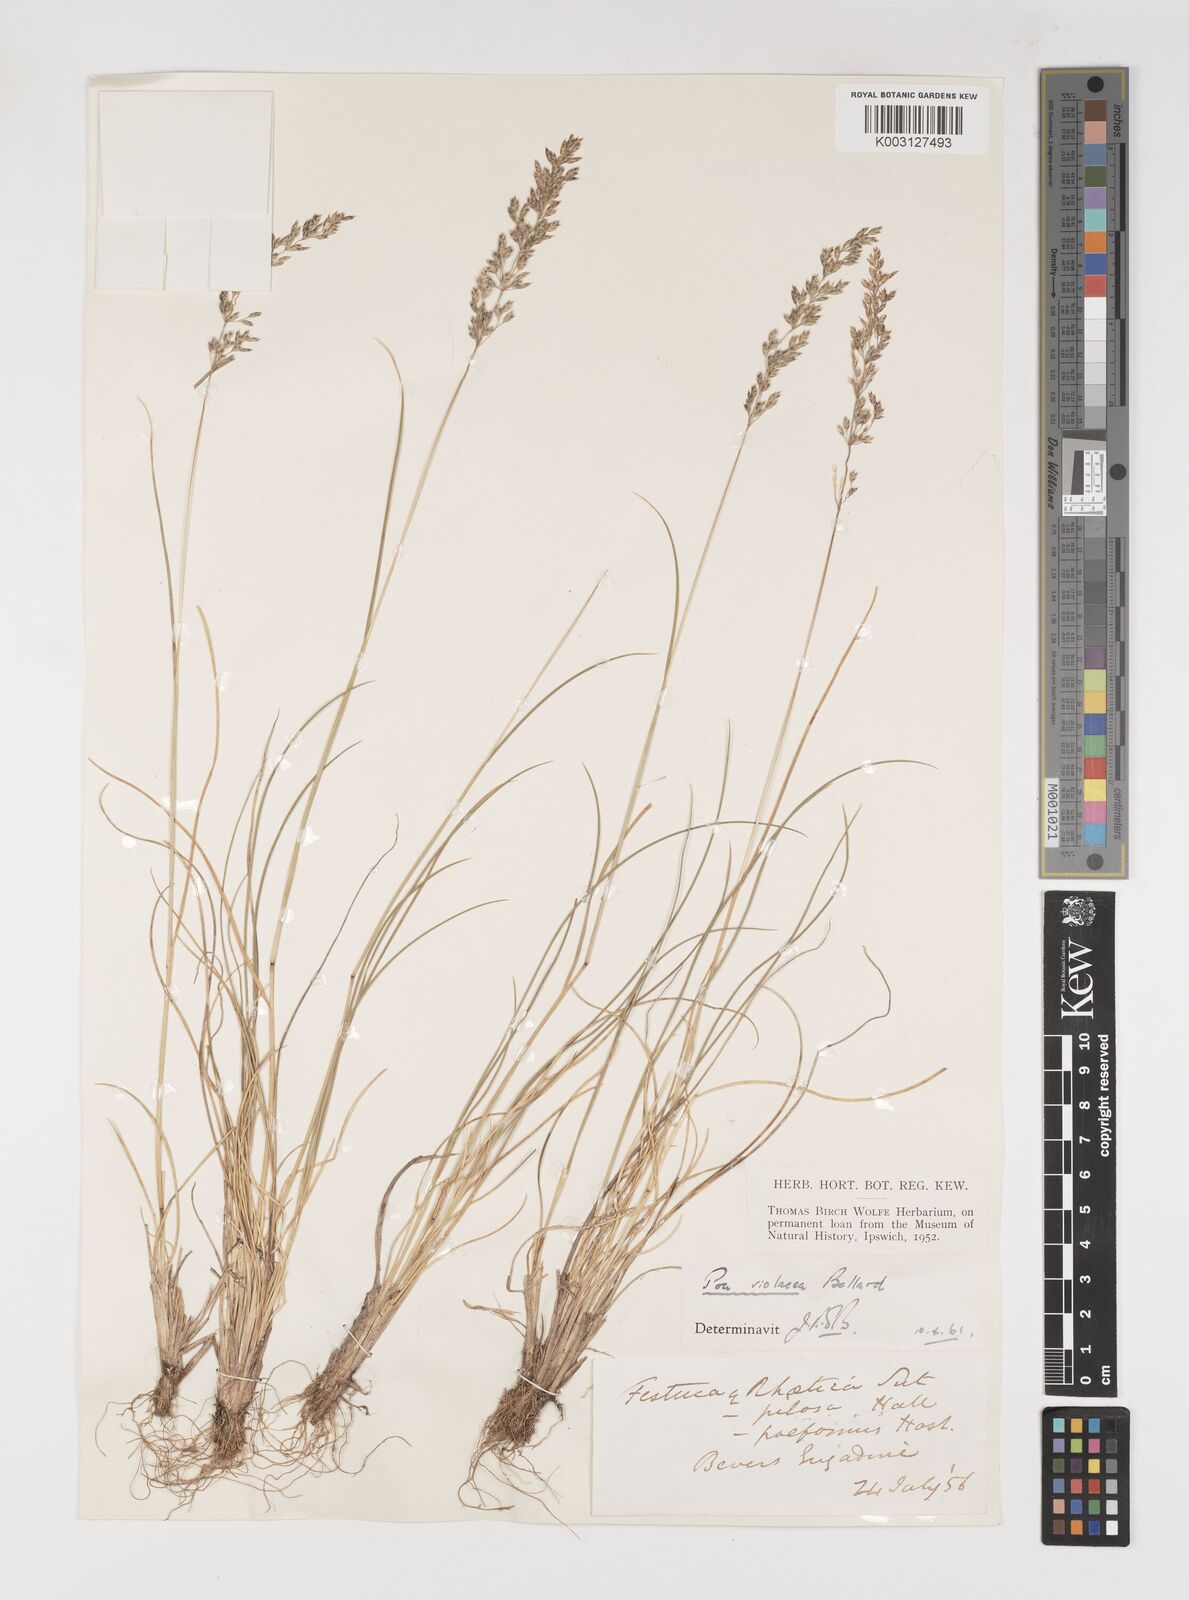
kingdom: Plantae
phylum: Tracheophyta
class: Liliopsida
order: Poales
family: Poaceae
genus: Bellardiochloa
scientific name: Bellardiochloa variegata
